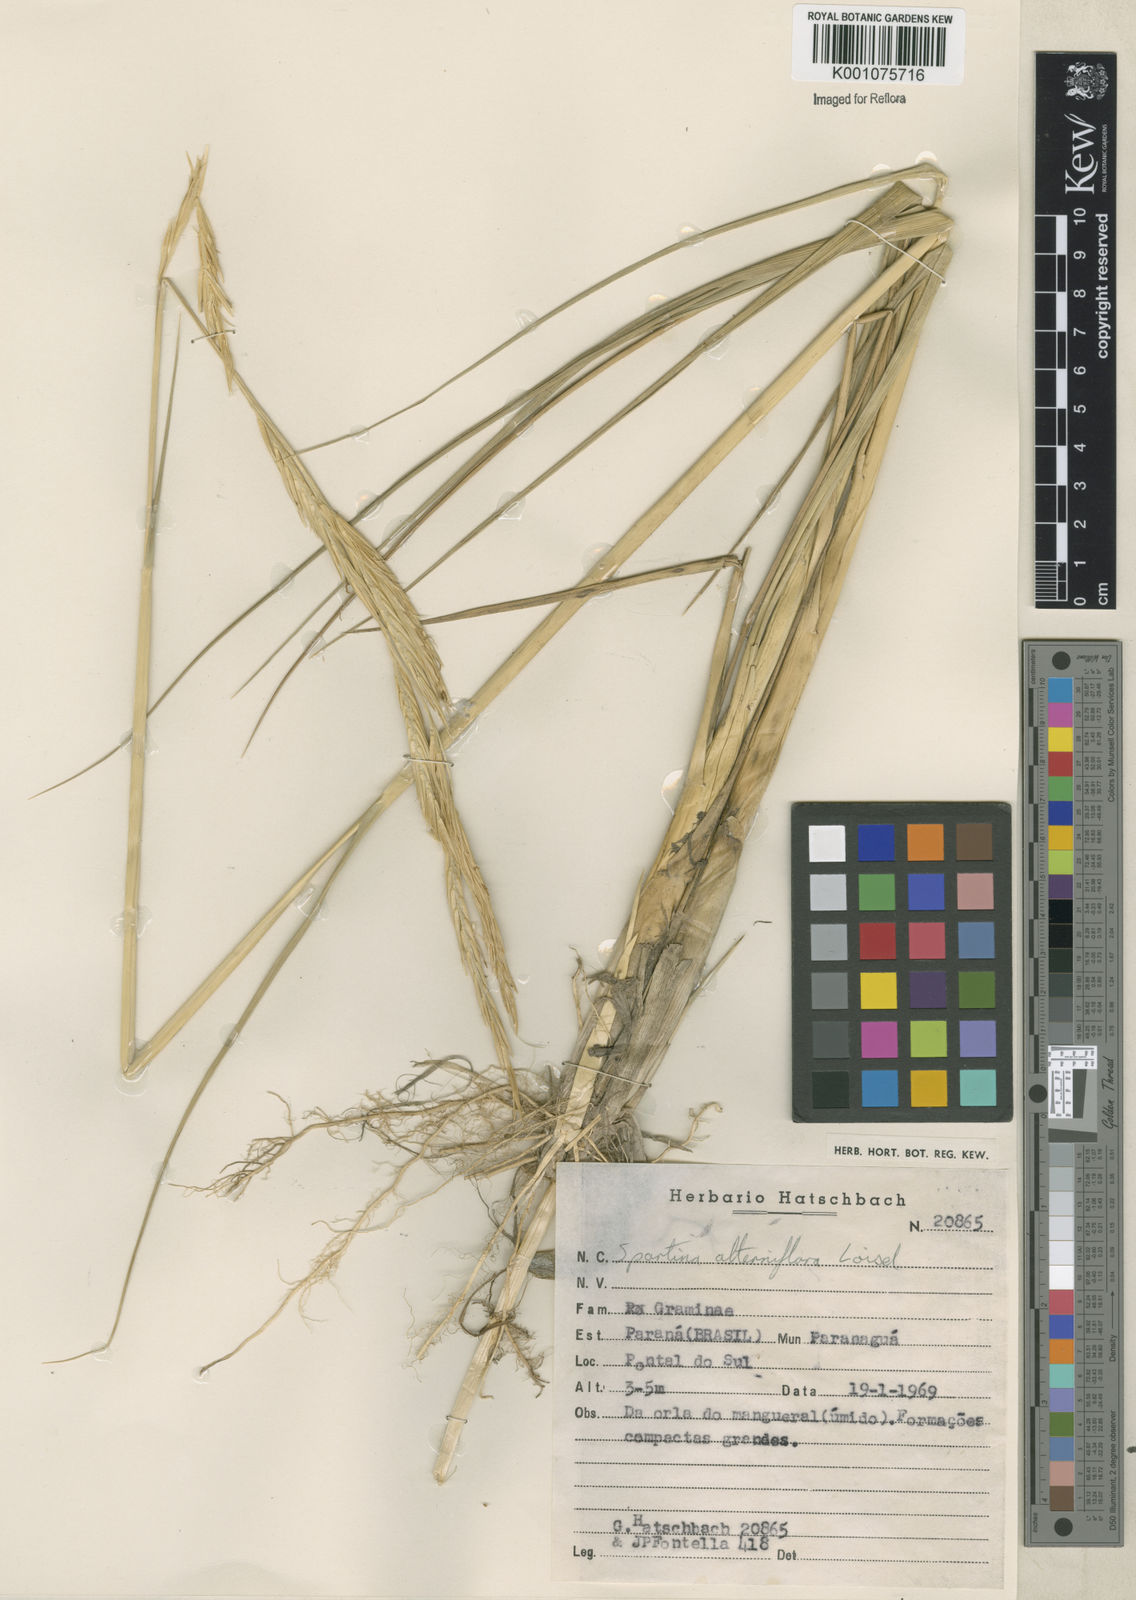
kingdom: Animalia
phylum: Mollusca
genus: Spartina
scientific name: Spartina
